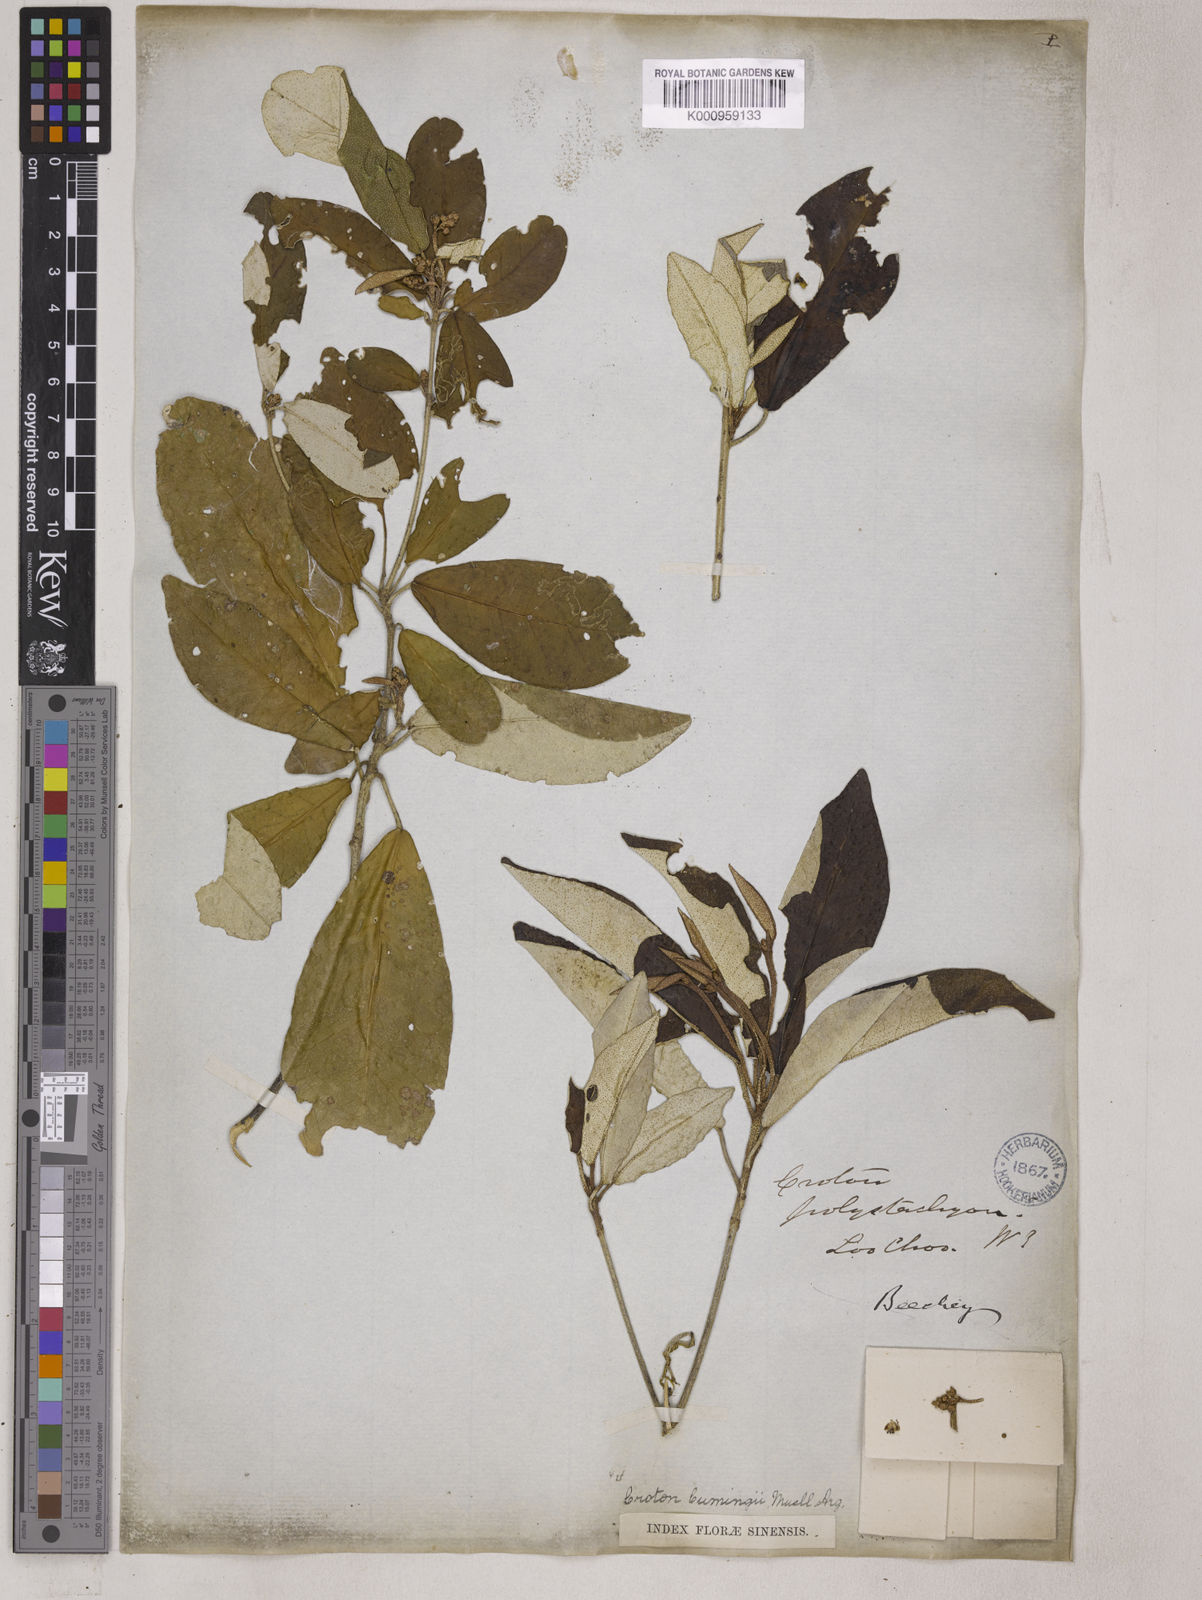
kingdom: Plantae
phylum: Tracheophyta
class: Magnoliopsida
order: Malpighiales
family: Euphorbiaceae
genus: Croton
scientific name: Croton eluteria
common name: Seaside balsam
